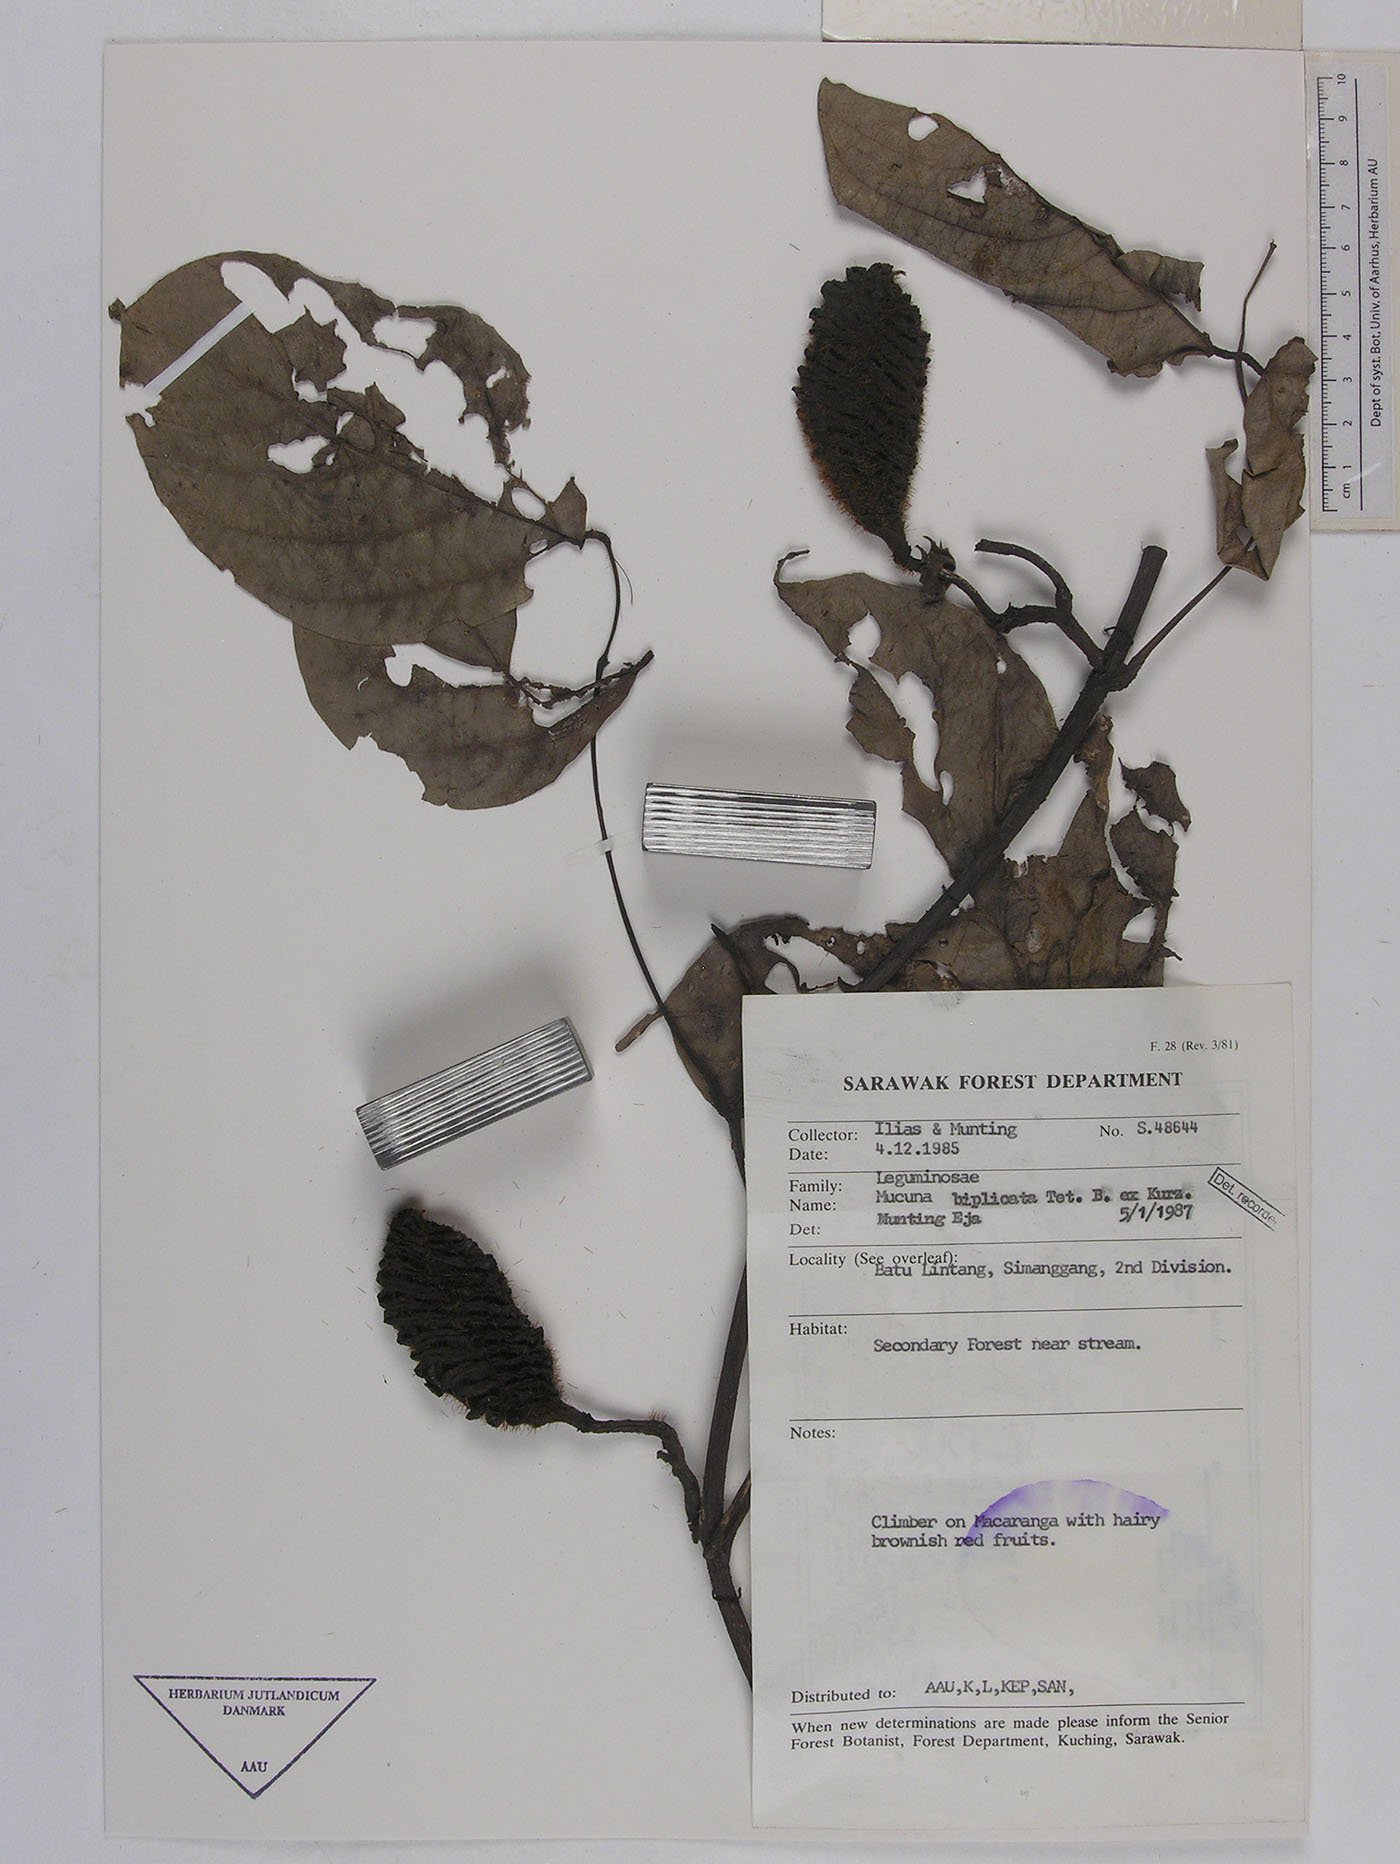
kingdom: Plantae
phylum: Tracheophyta
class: Magnoliopsida
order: Fabales
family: Fabaceae
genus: Mucuna
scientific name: Mucuna biplicata
